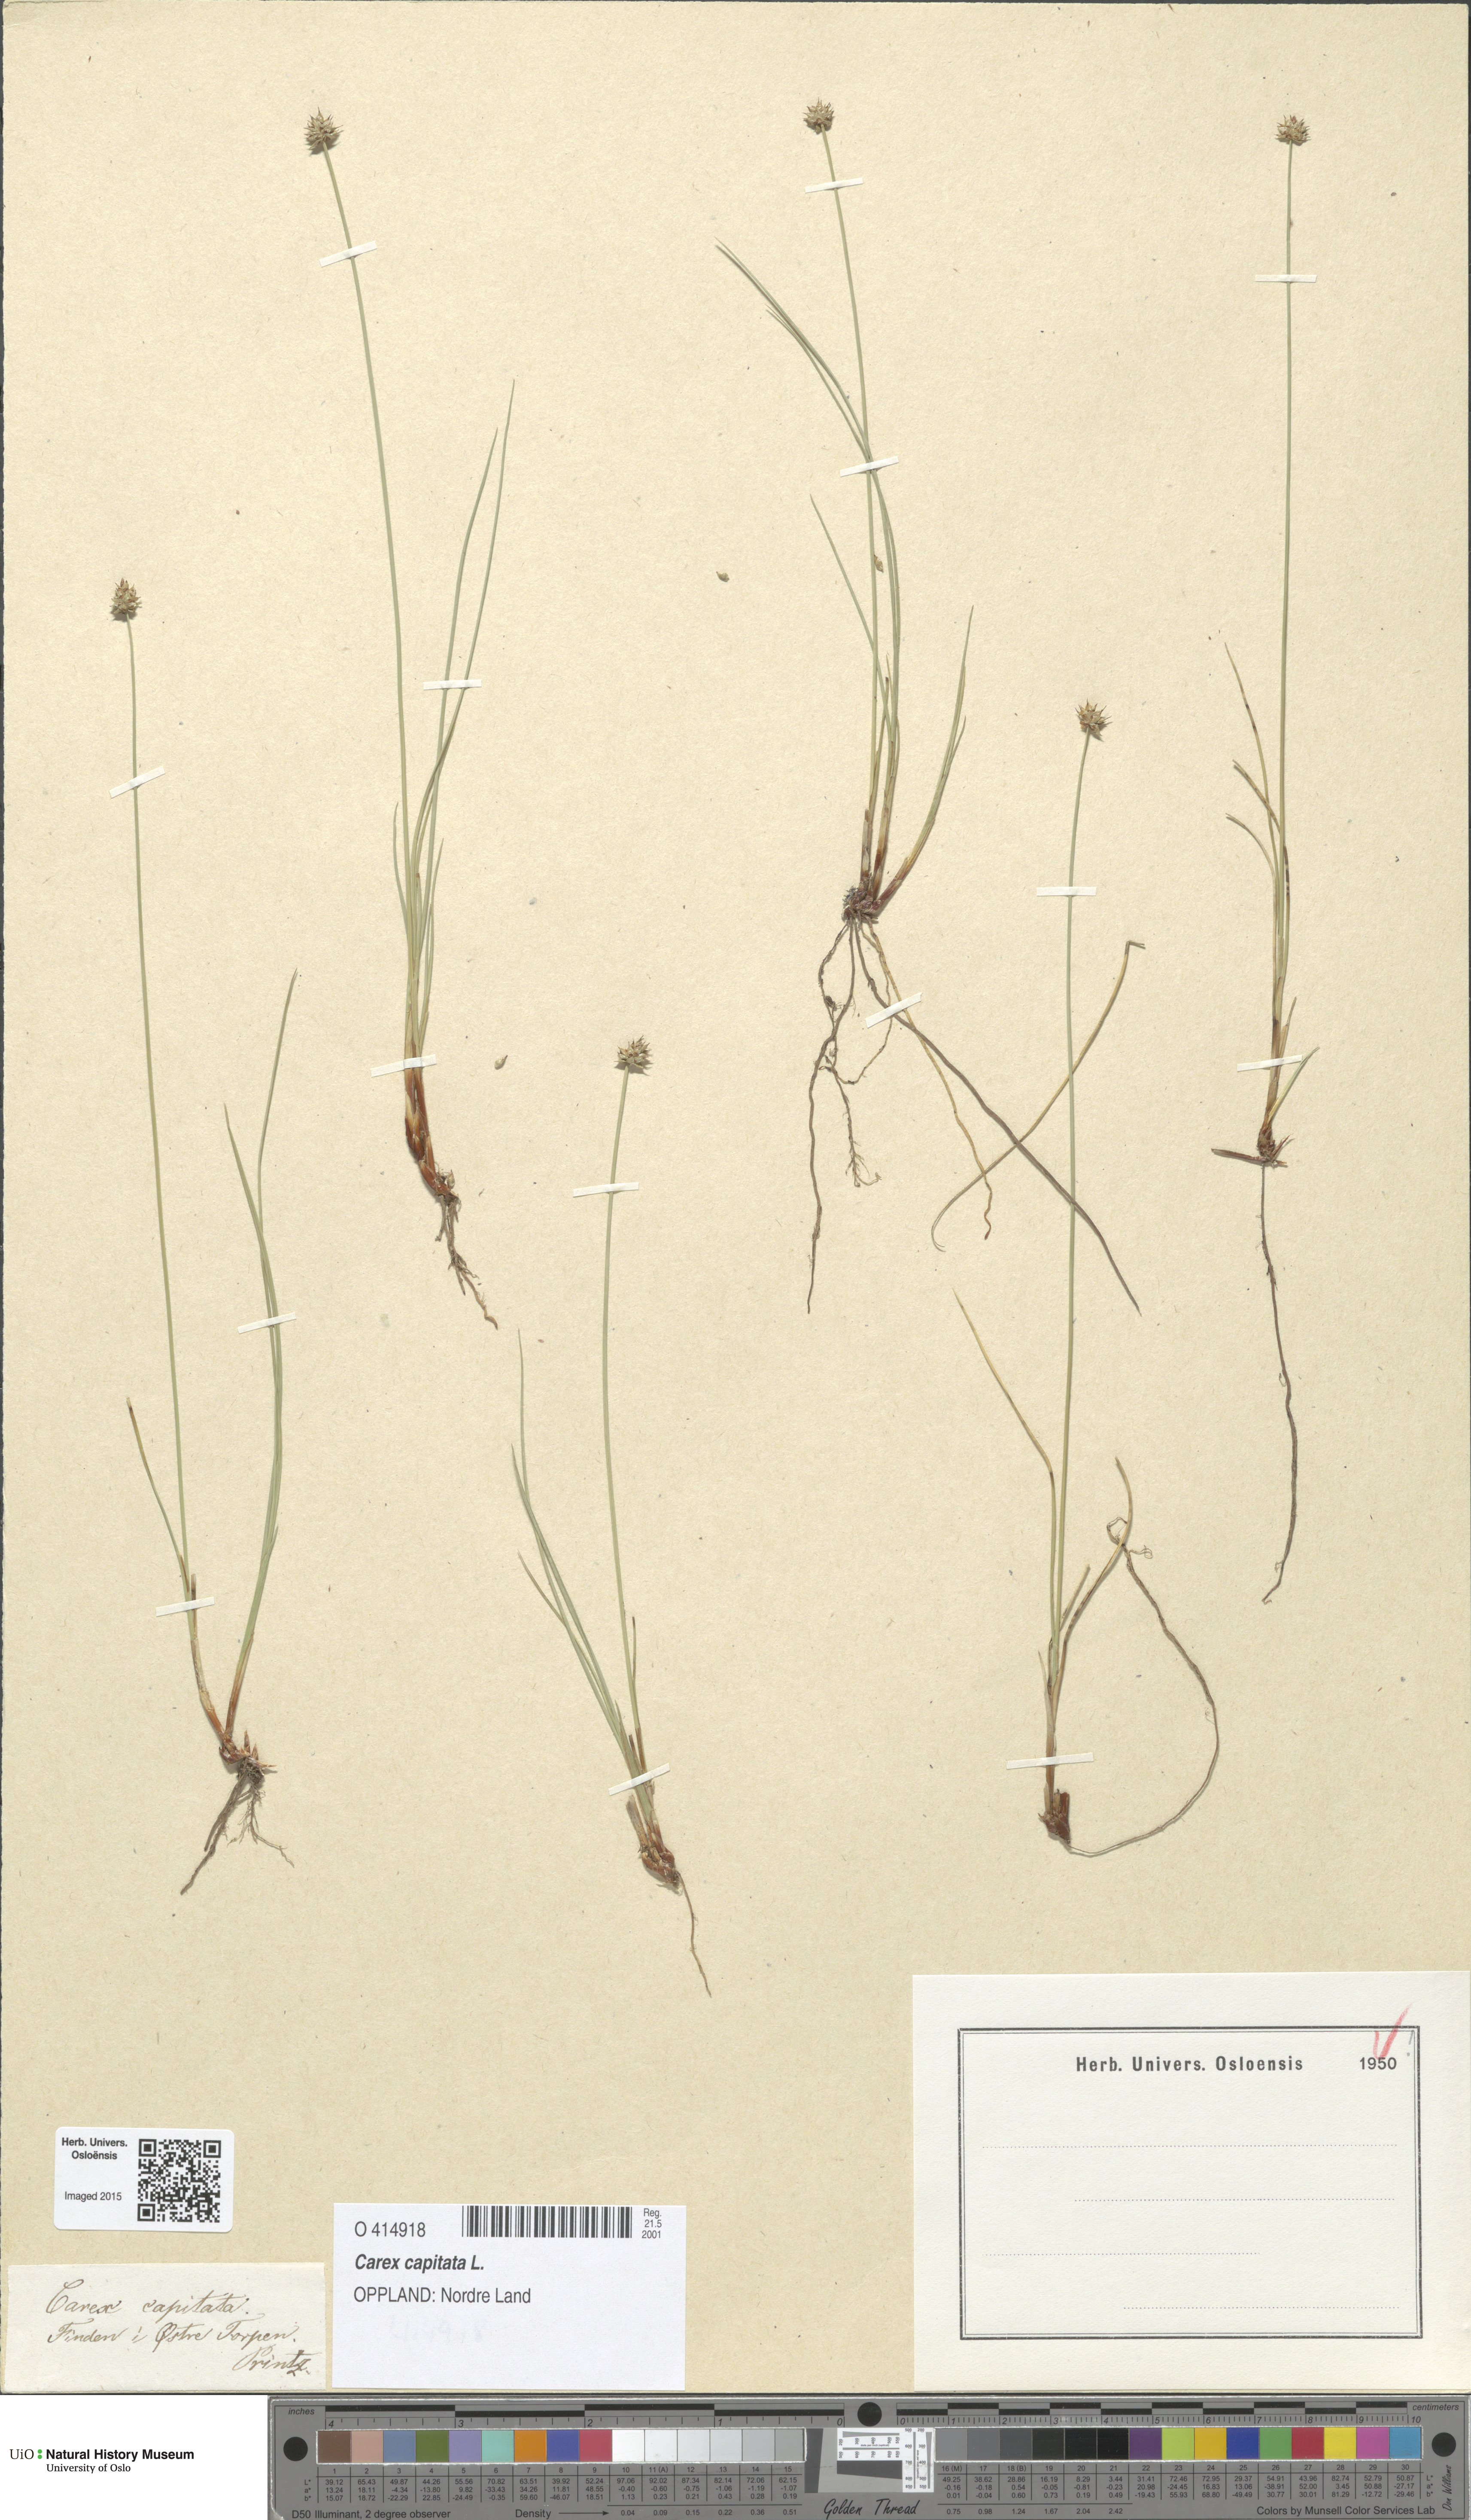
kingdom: Plantae
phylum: Tracheophyta
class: Liliopsida
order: Poales
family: Cyperaceae
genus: Carex
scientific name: Carex capitata
